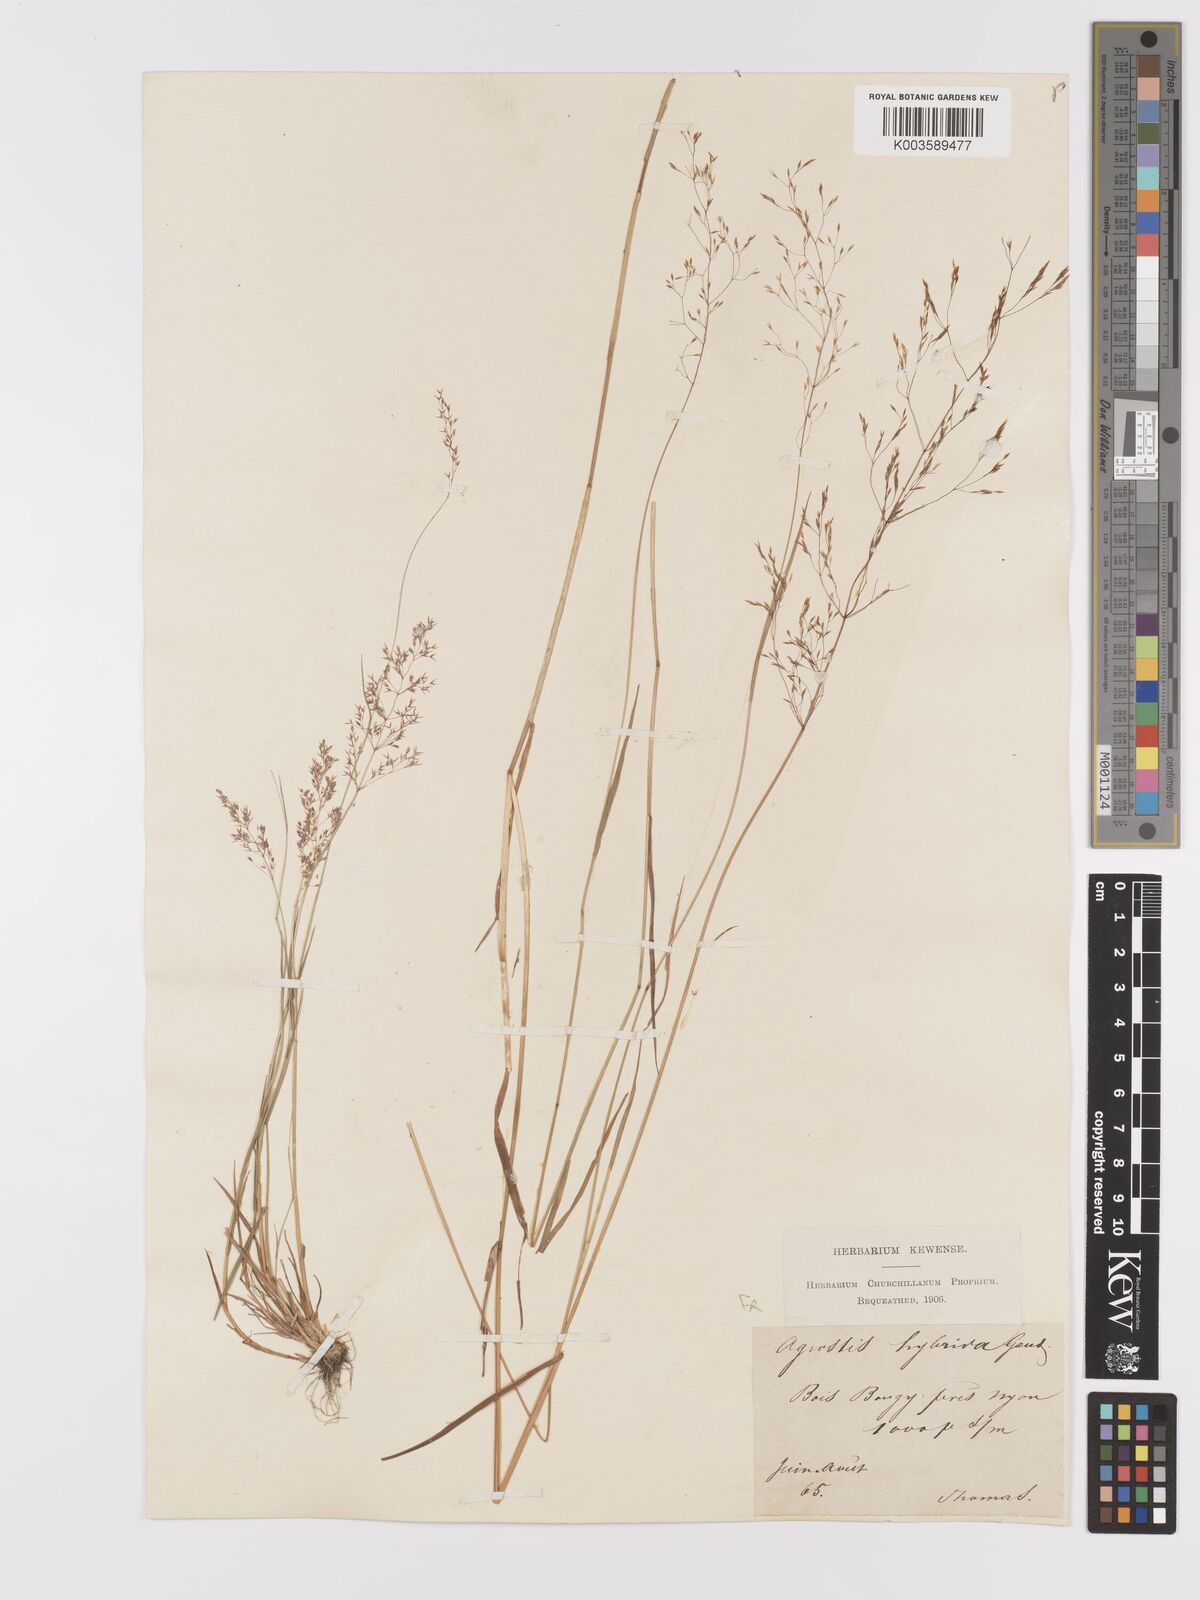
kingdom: Plantae
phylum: Tracheophyta
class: Liliopsida
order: Poales
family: Poaceae
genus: Agrostis
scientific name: Agrostis canina
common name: Velvet bent
